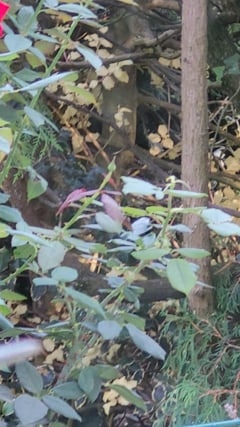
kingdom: Animalia
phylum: Chordata
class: Aves
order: Passeriformes
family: Corvidae
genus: Garrulus
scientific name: Garrulus glandarius
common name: Eurasian jay
